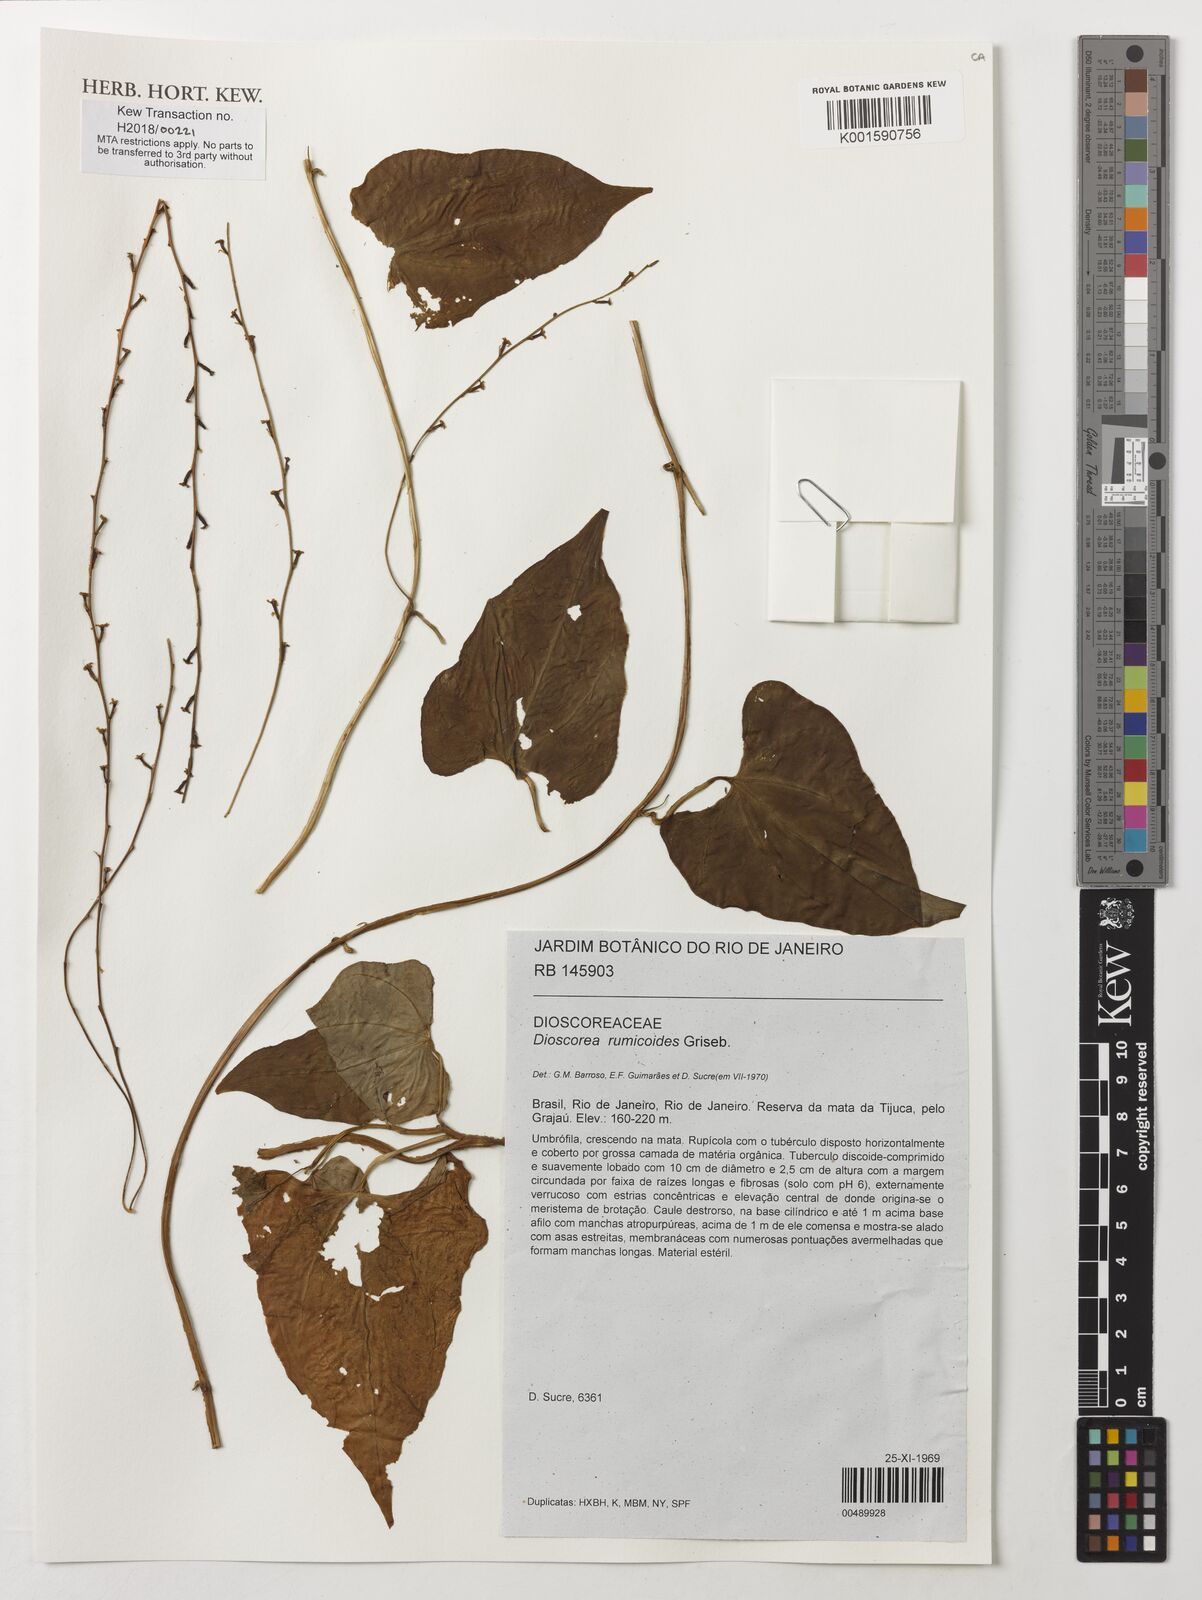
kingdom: Plantae
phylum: Tracheophyta
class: Liliopsida
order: Dioscoreales
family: Dioscoreaceae
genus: Dioscorea
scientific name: Dioscorea rumicoides
